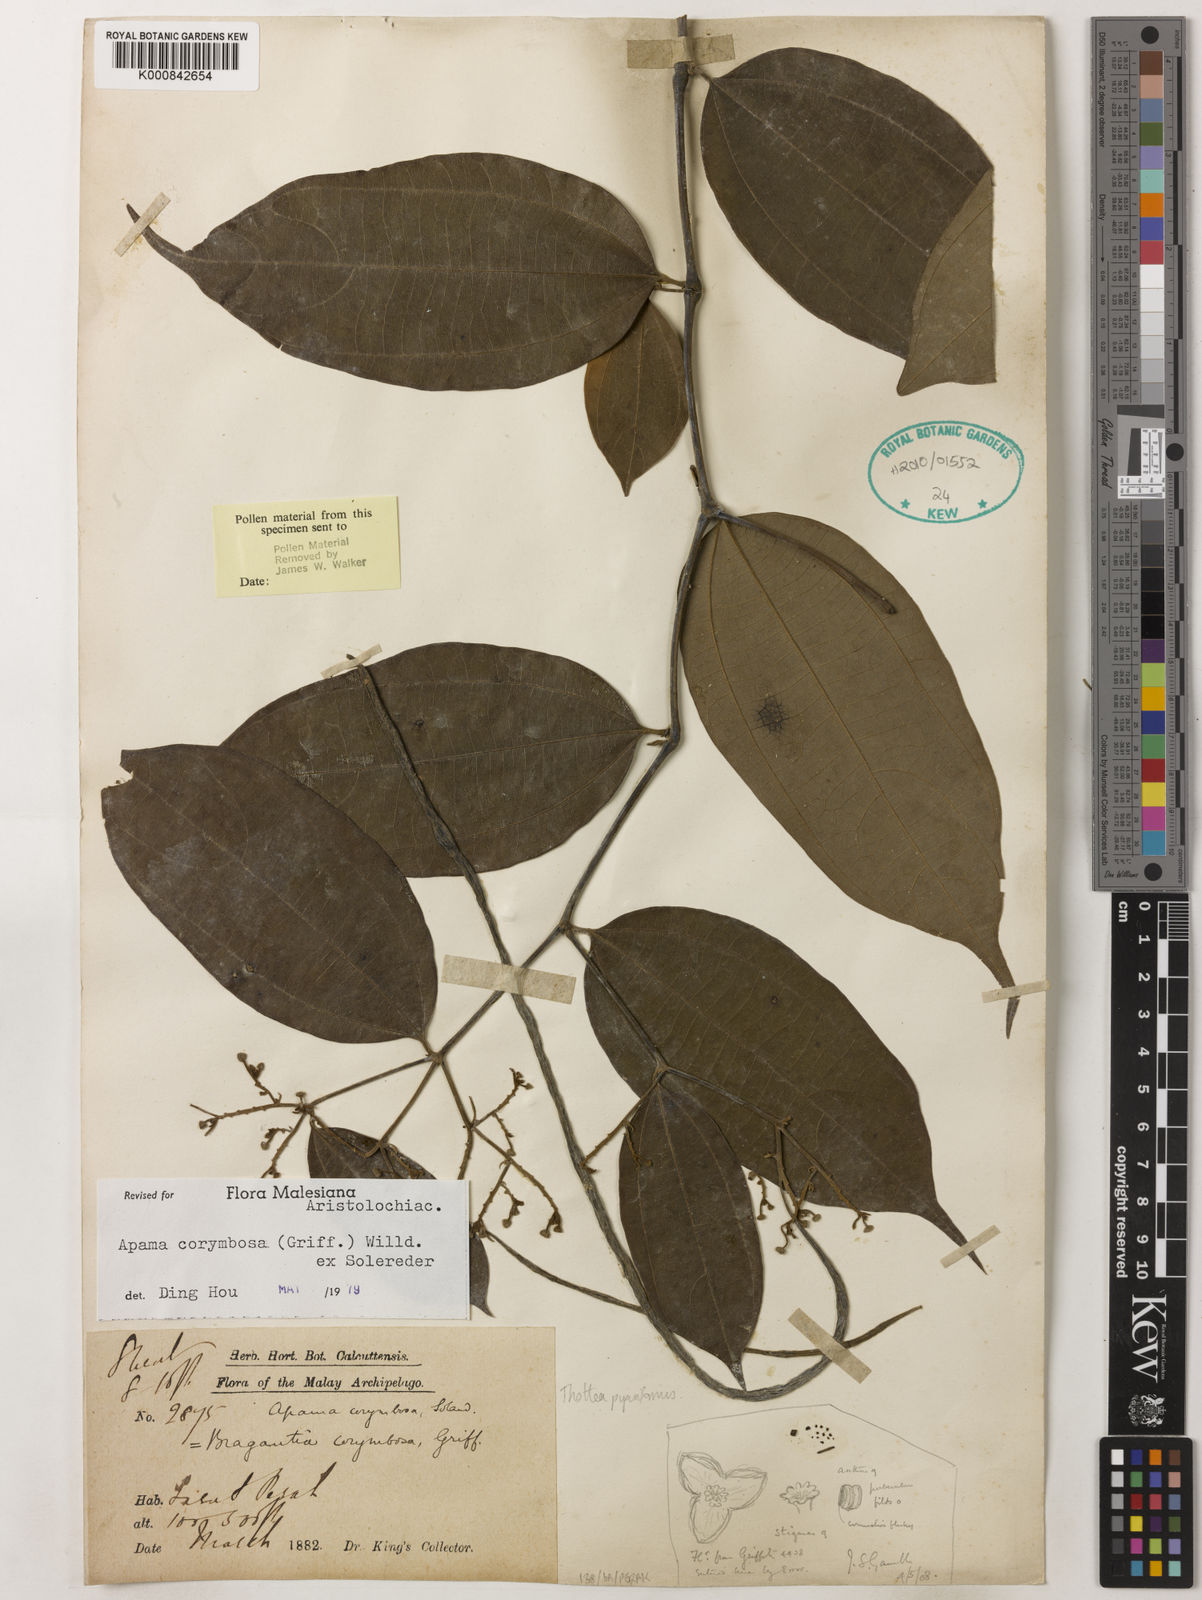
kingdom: Plantae
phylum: Tracheophyta
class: Magnoliopsida
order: Piperales
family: Aristolochiaceae
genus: Thottea
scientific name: Thottea piperiformis
